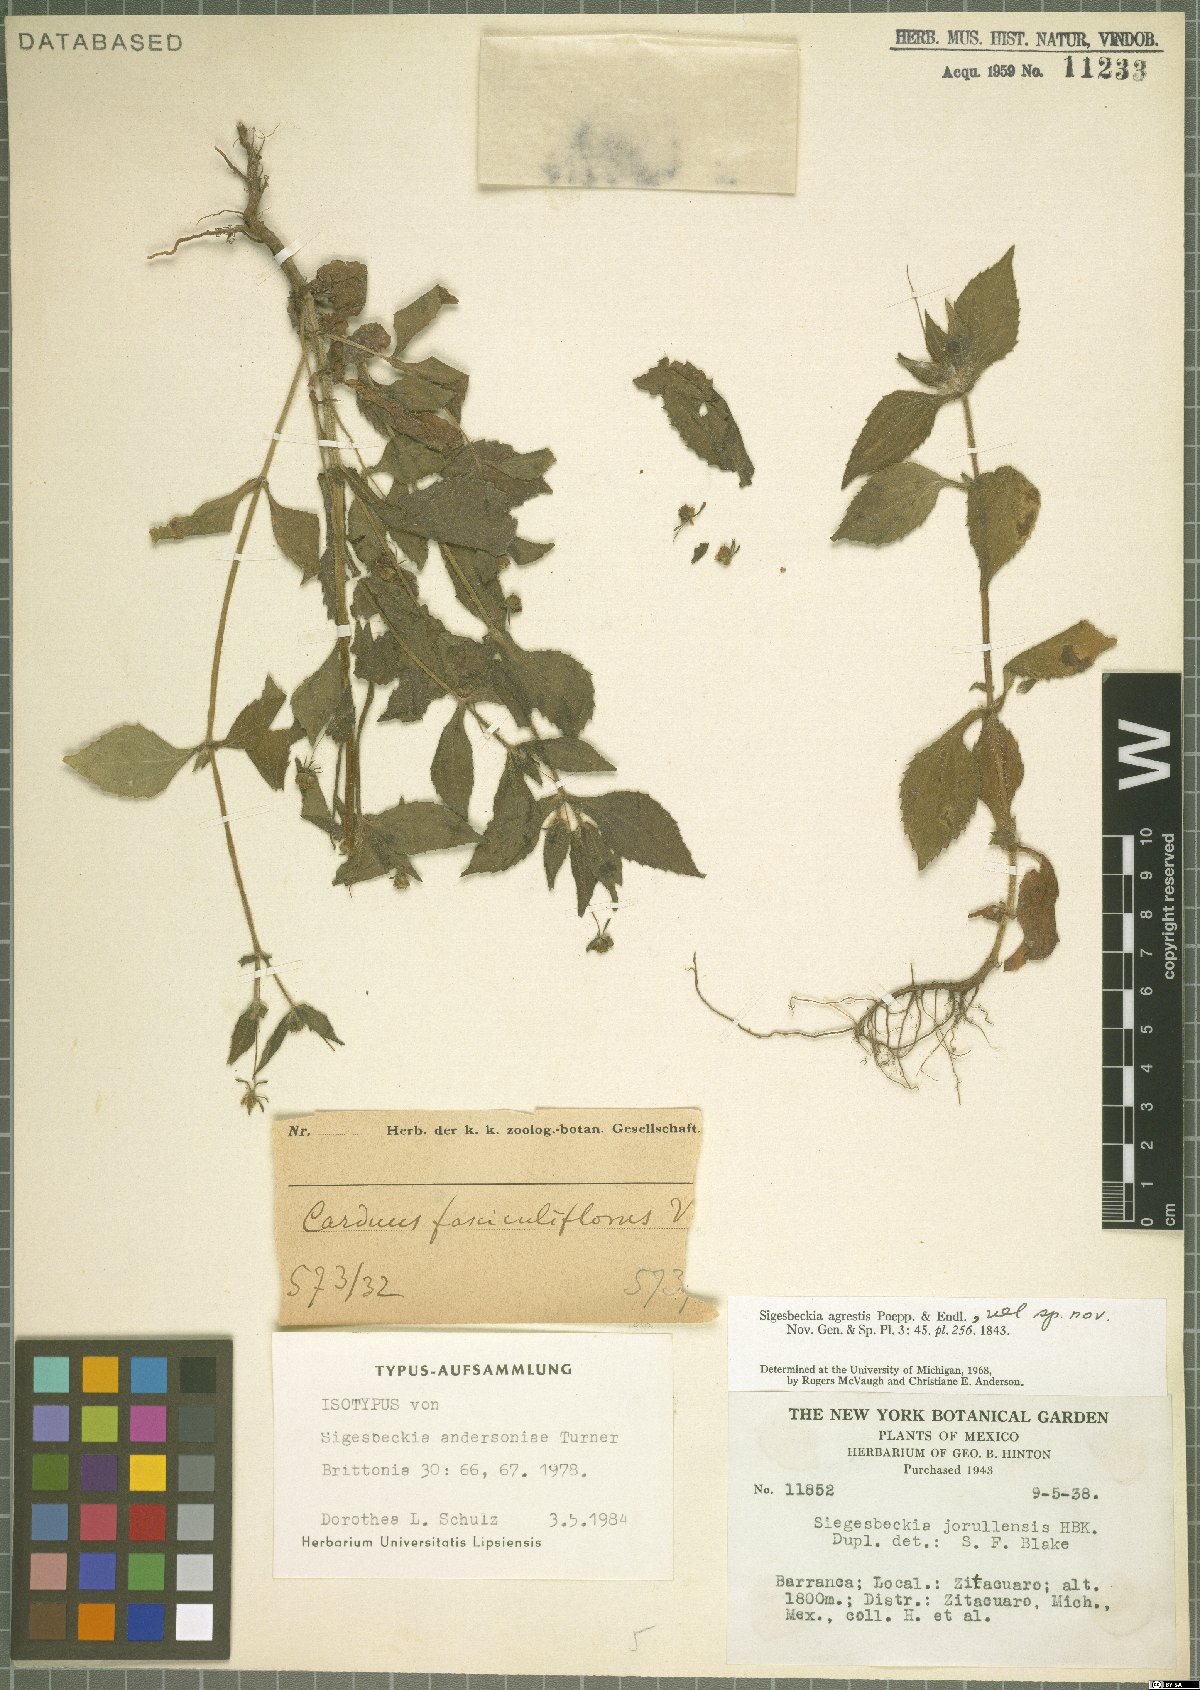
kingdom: Plantae
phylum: Tracheophyta
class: Magnoliopsida
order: Asterales
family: Asteraceae
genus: Zandera
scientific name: Zandera andersoniae
